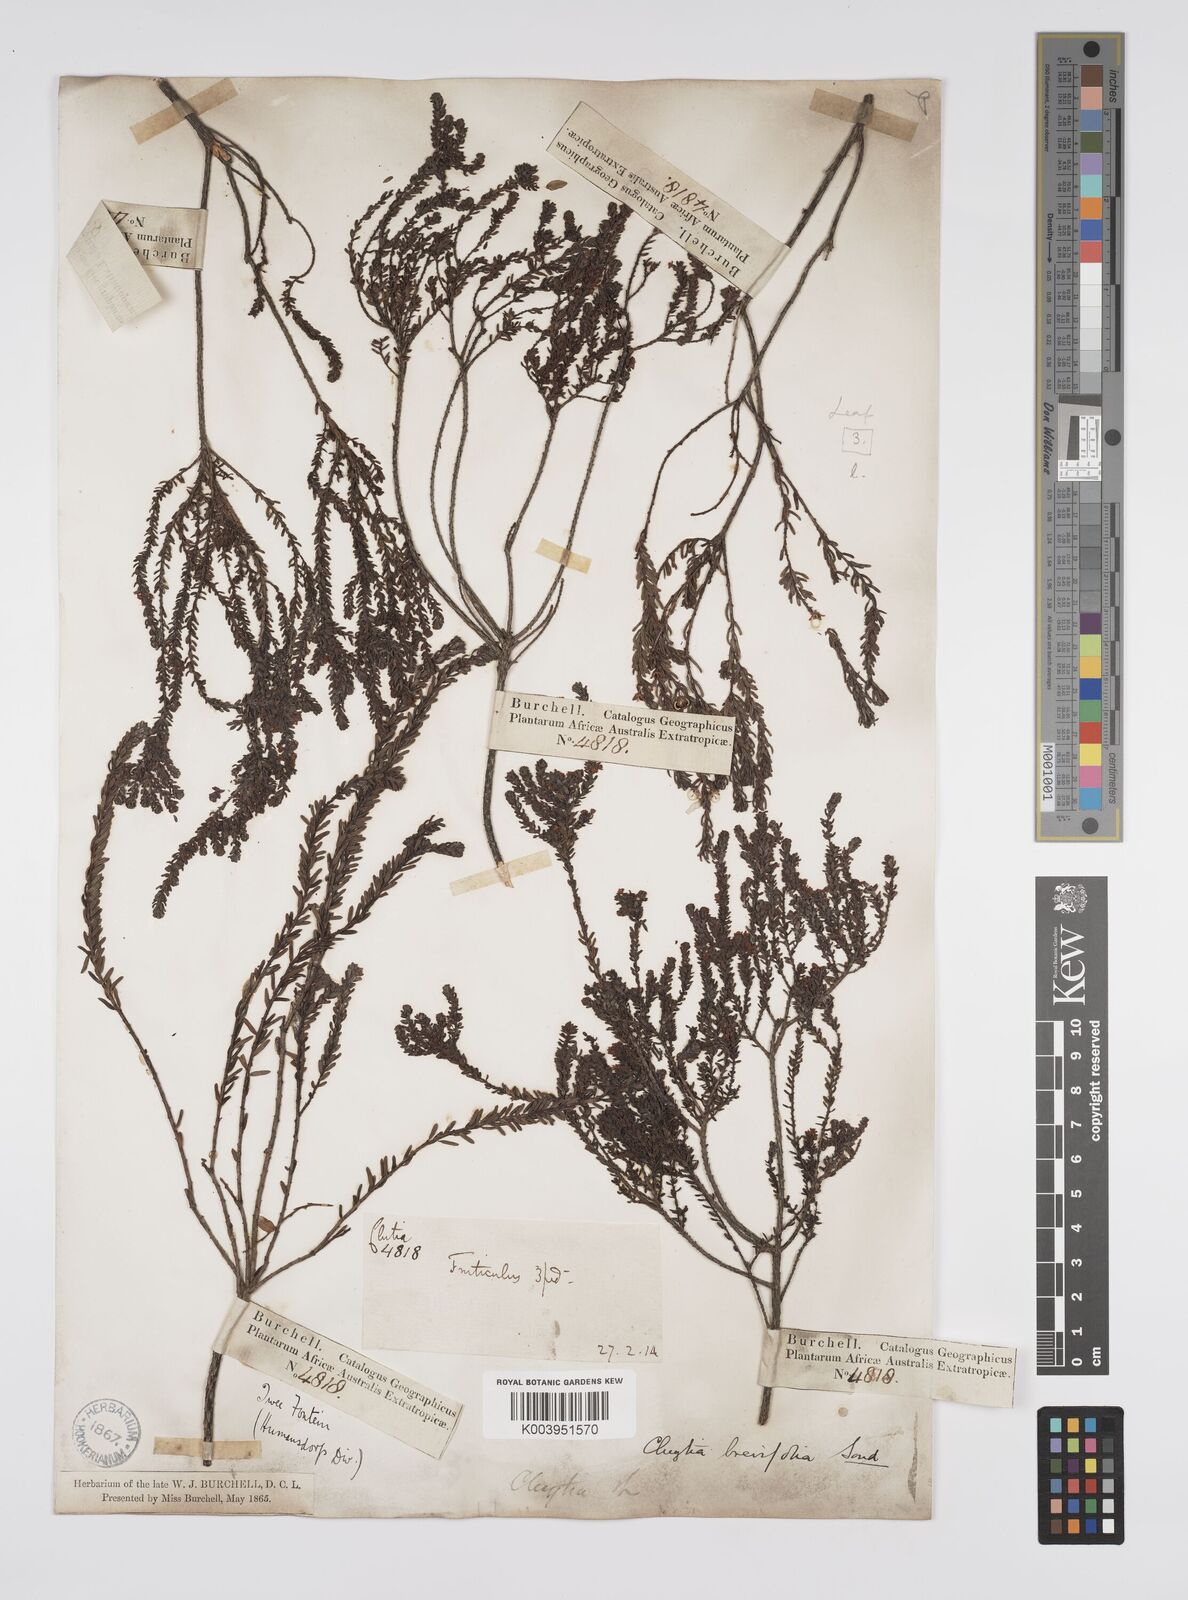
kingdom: Plantae
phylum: Tracheophyta
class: Magnoliopsida
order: Malpighiales
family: Peraceae
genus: Clutia
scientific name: Clutia brevifolia
